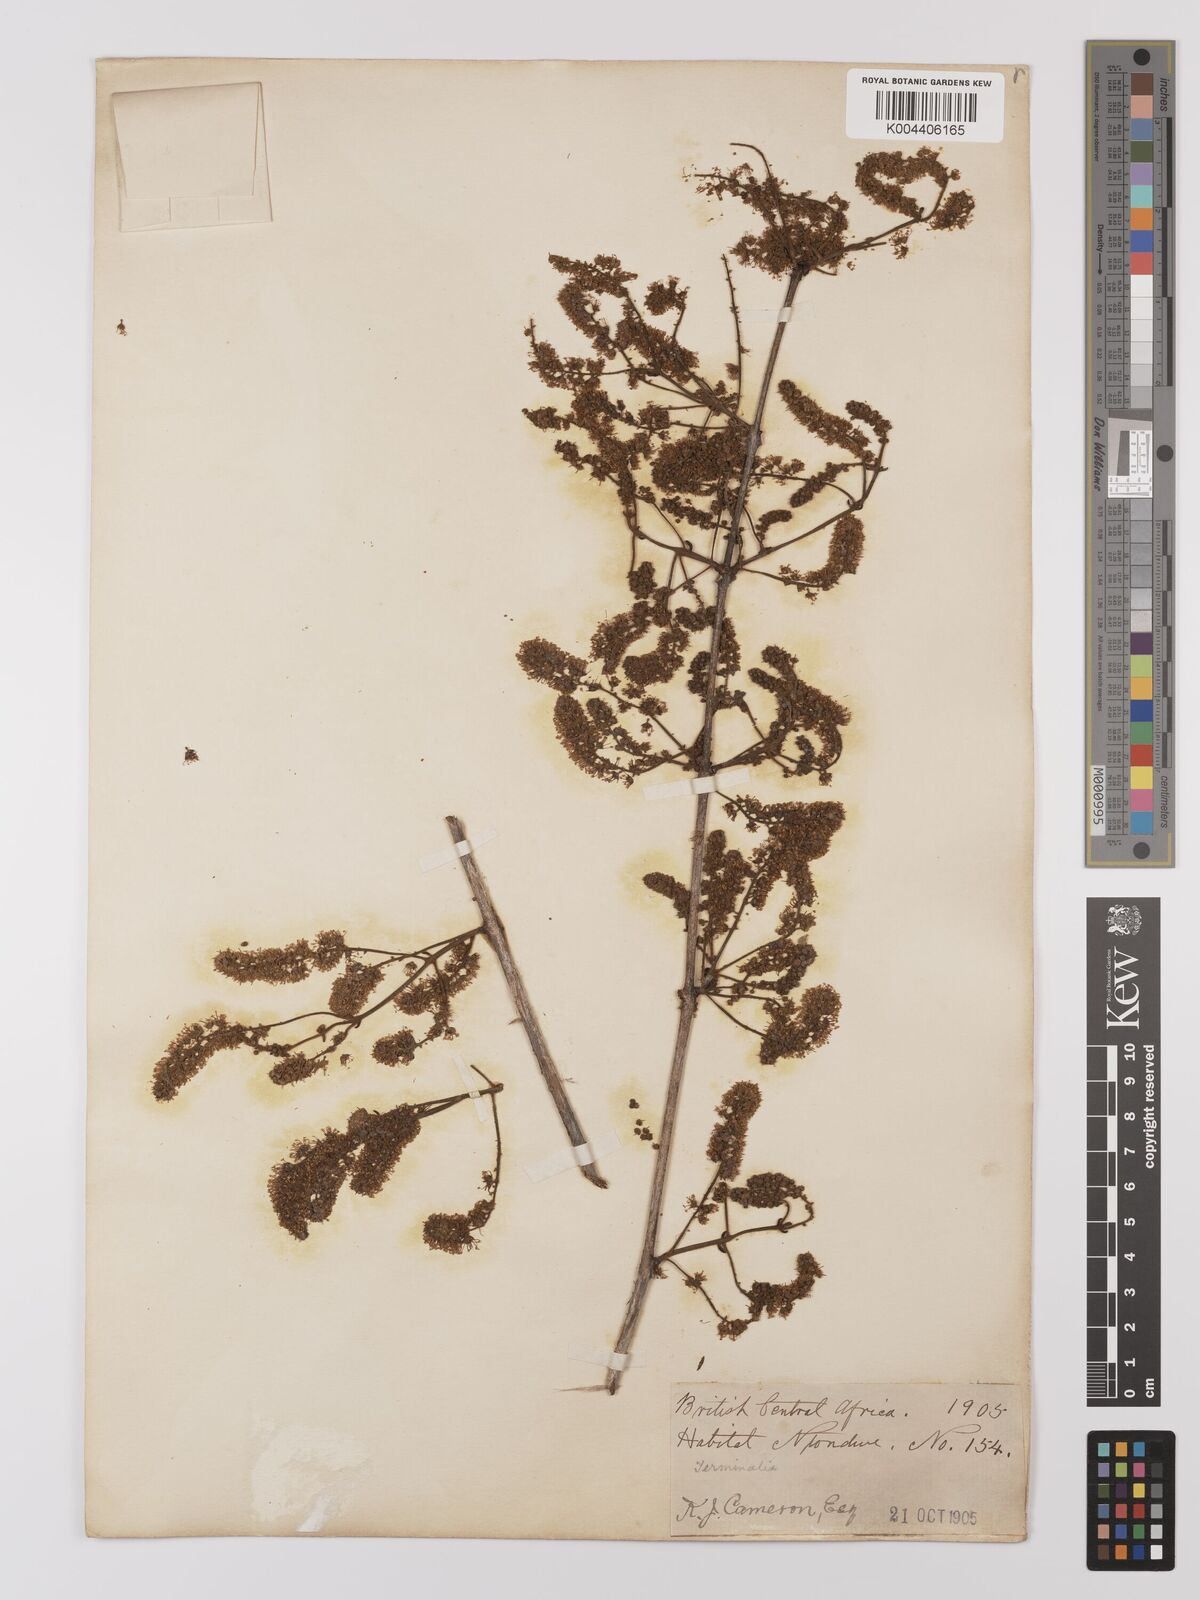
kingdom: Plantae
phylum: Tracheophyta
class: Magnoliopsida
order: Myrtales
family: Combretaceae
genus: Combretum
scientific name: Combretum
